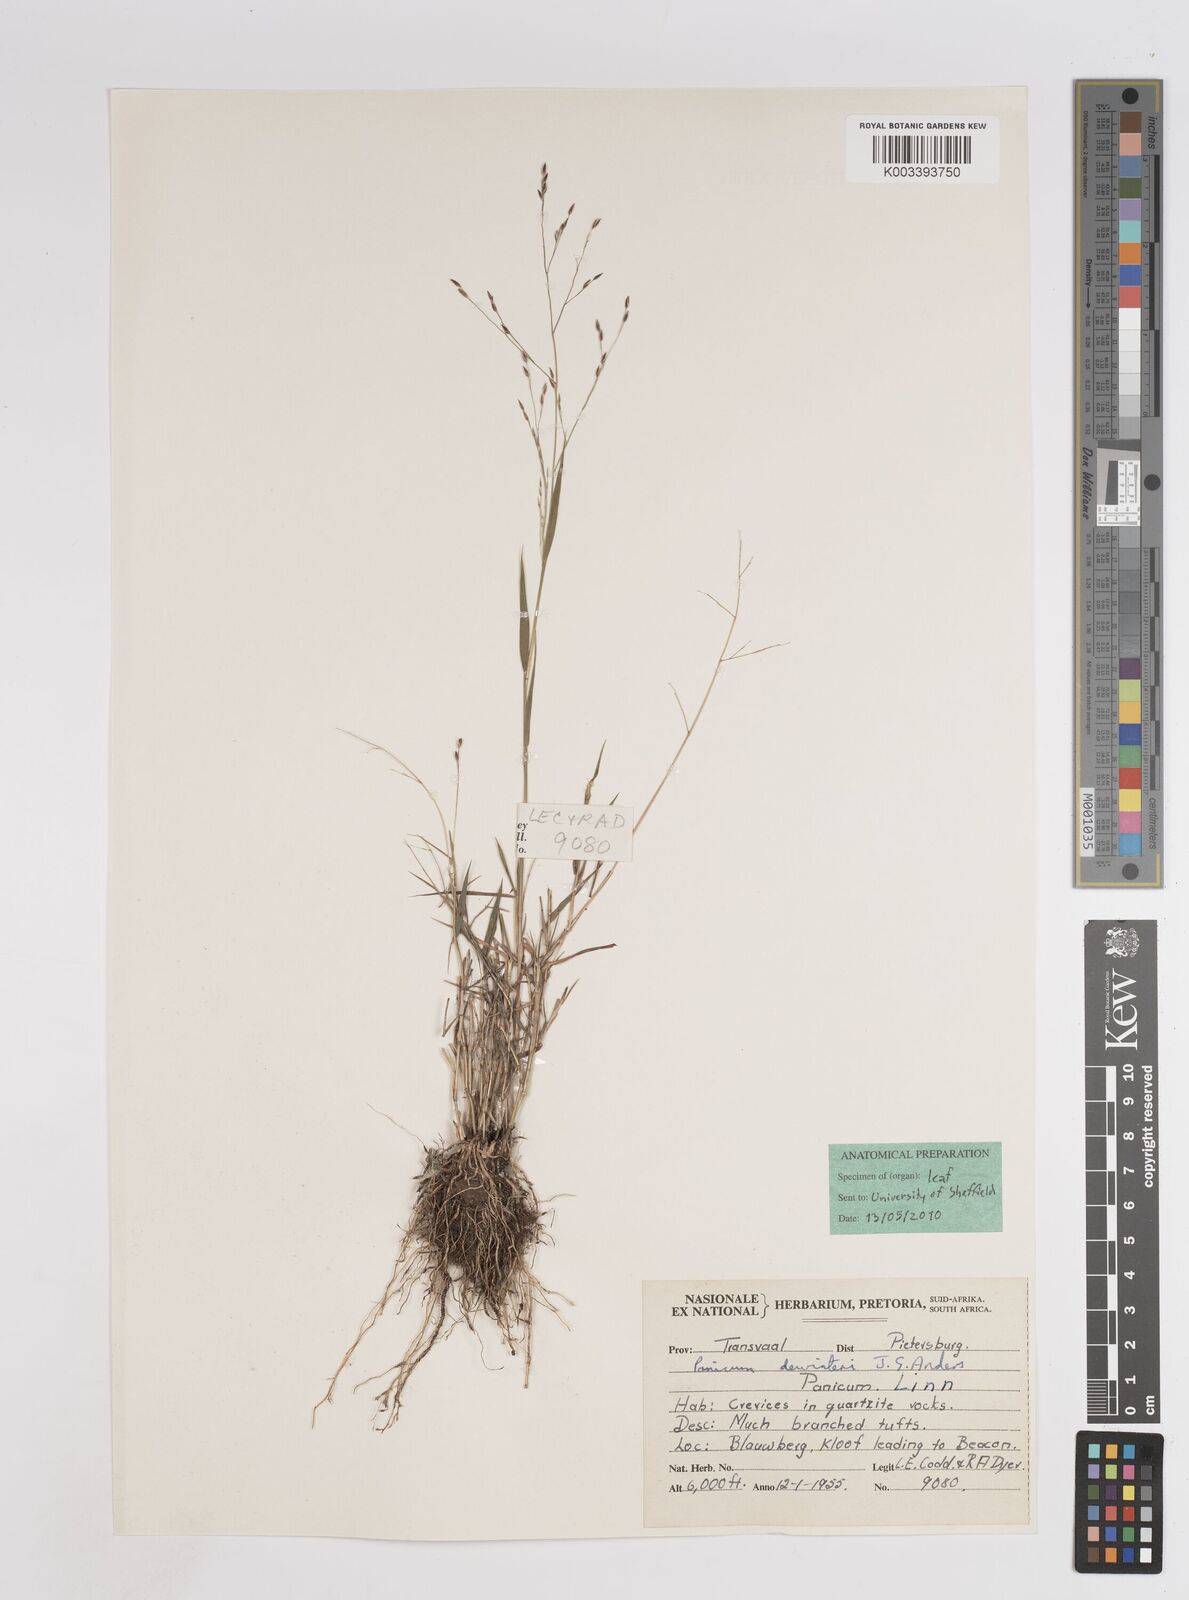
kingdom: Plantae
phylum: Tracheophyta
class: Liliopsida
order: Poales
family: Poaceae
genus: Panicum
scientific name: Panicum dewinteri
